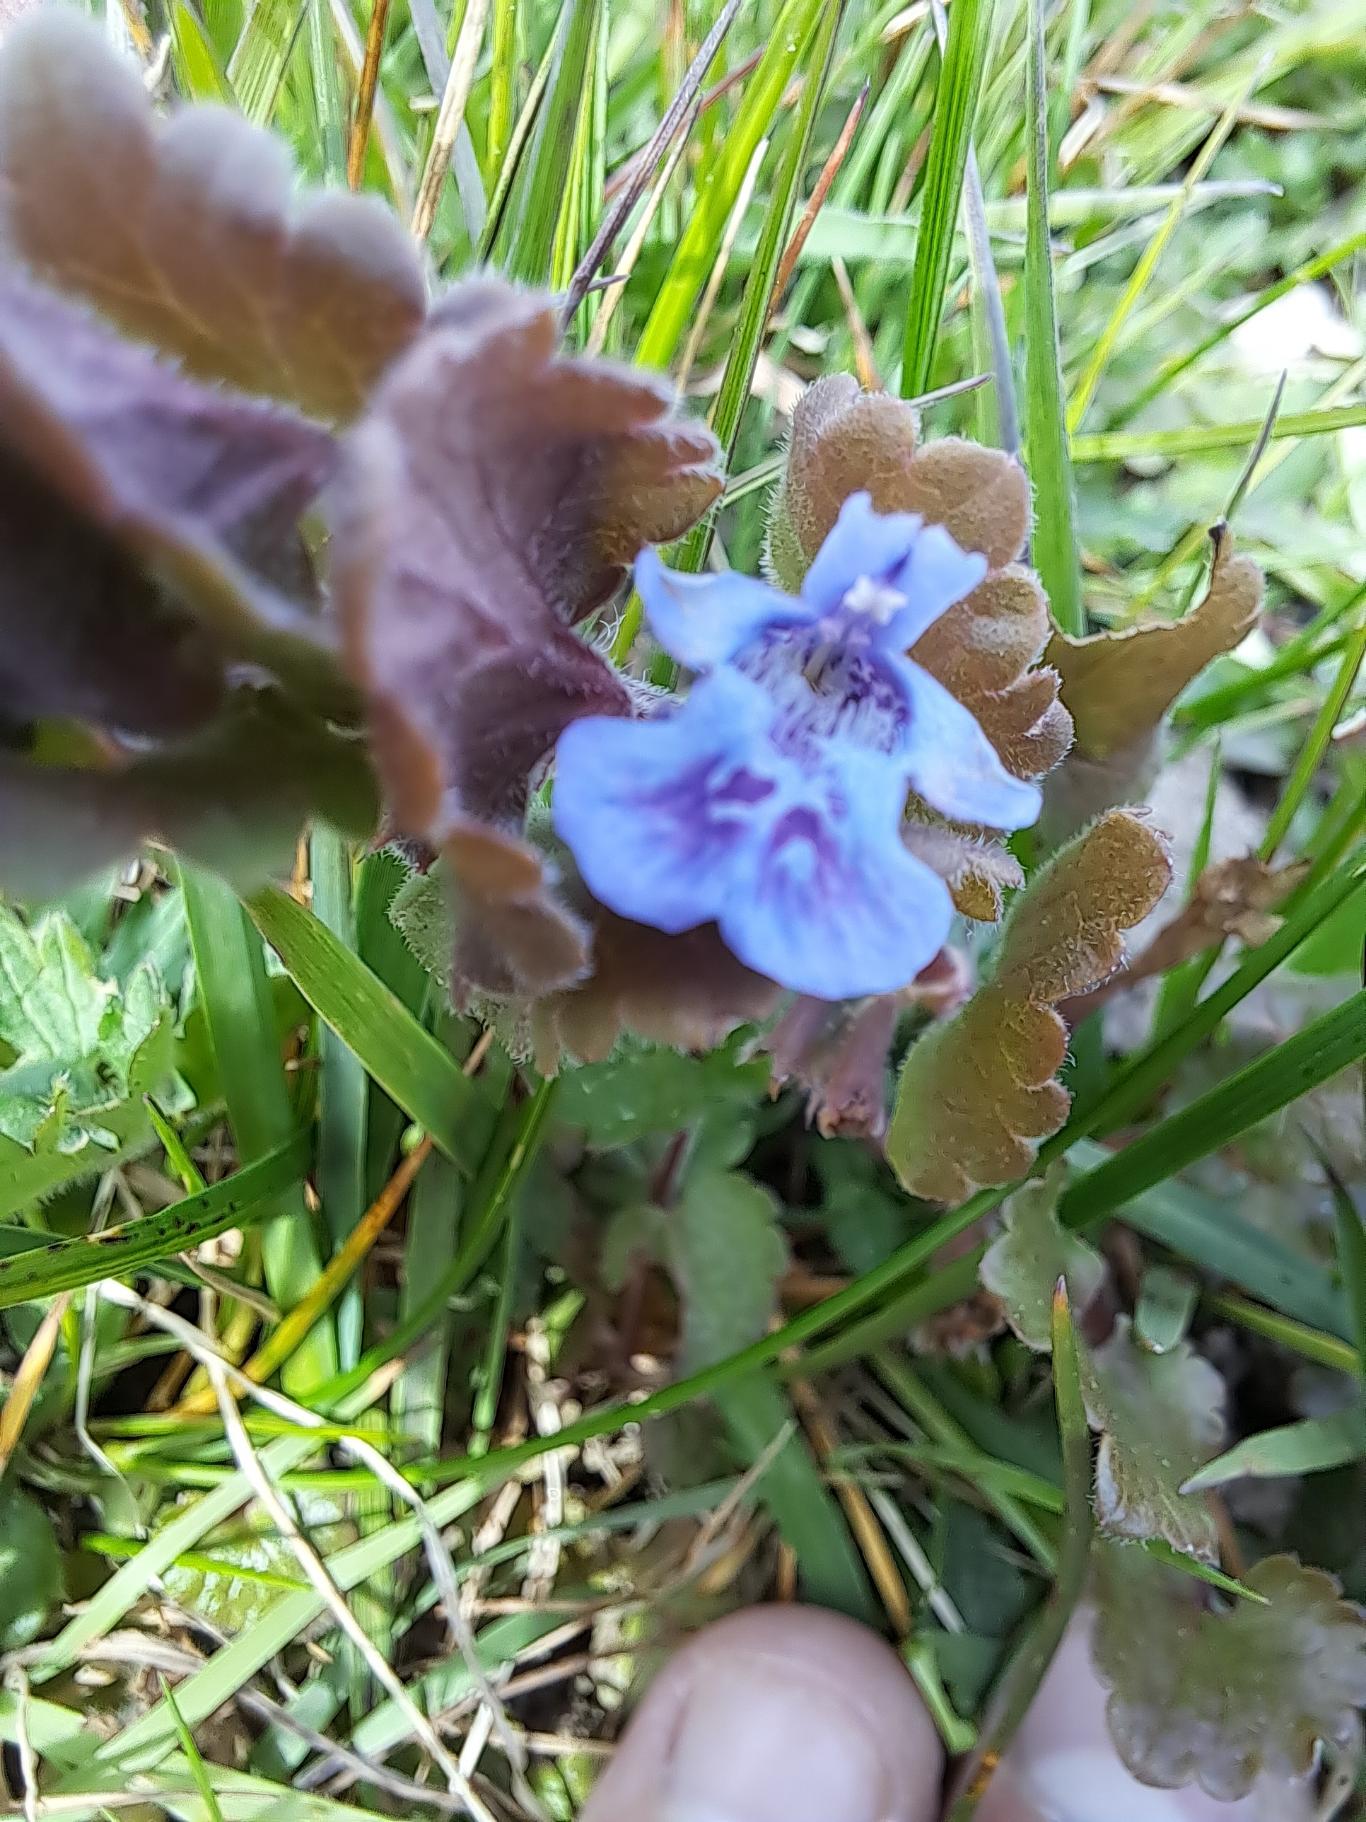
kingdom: Plantae
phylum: Tracheophyta
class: Magnoliopsida
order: Lamiales
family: Lamiaceae
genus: Glechoma
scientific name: Glechoma hederacea
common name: Korsknap
